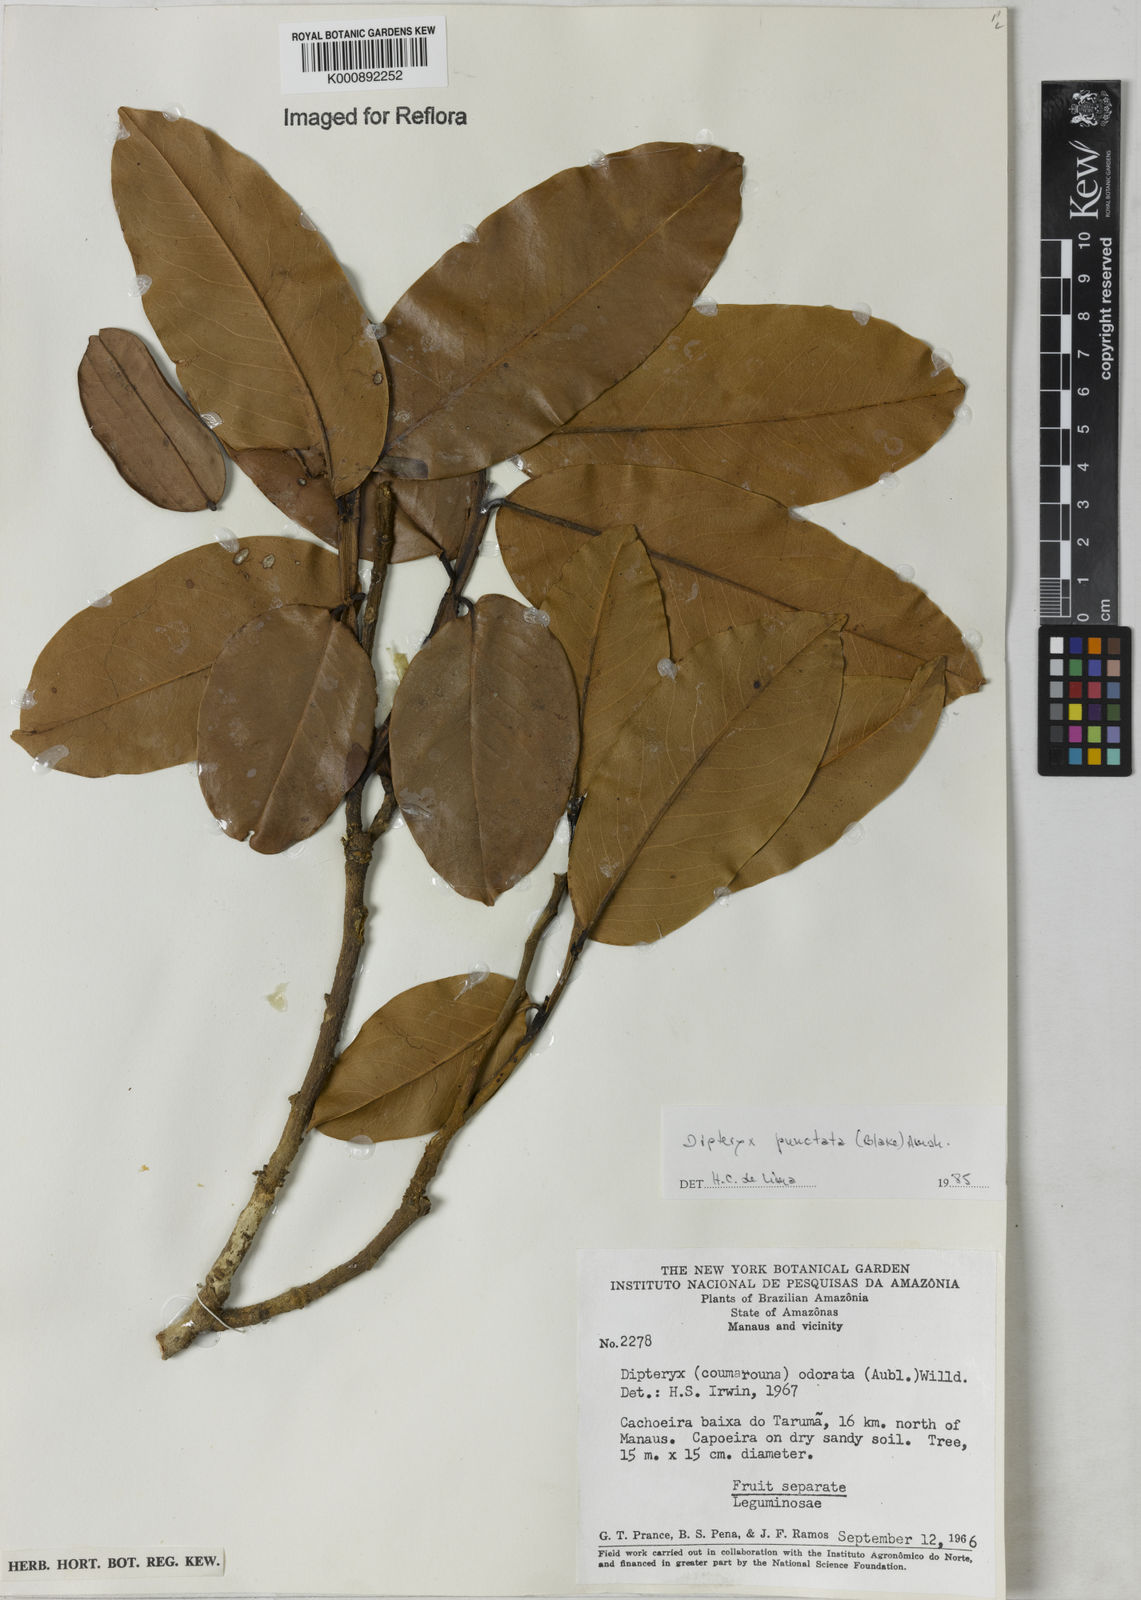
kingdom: Plantae
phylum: Tracheophyta
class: Magnoliopsida
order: Fabales
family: Fabaceae
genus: Dipteryx
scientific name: Dipteryx punctata
